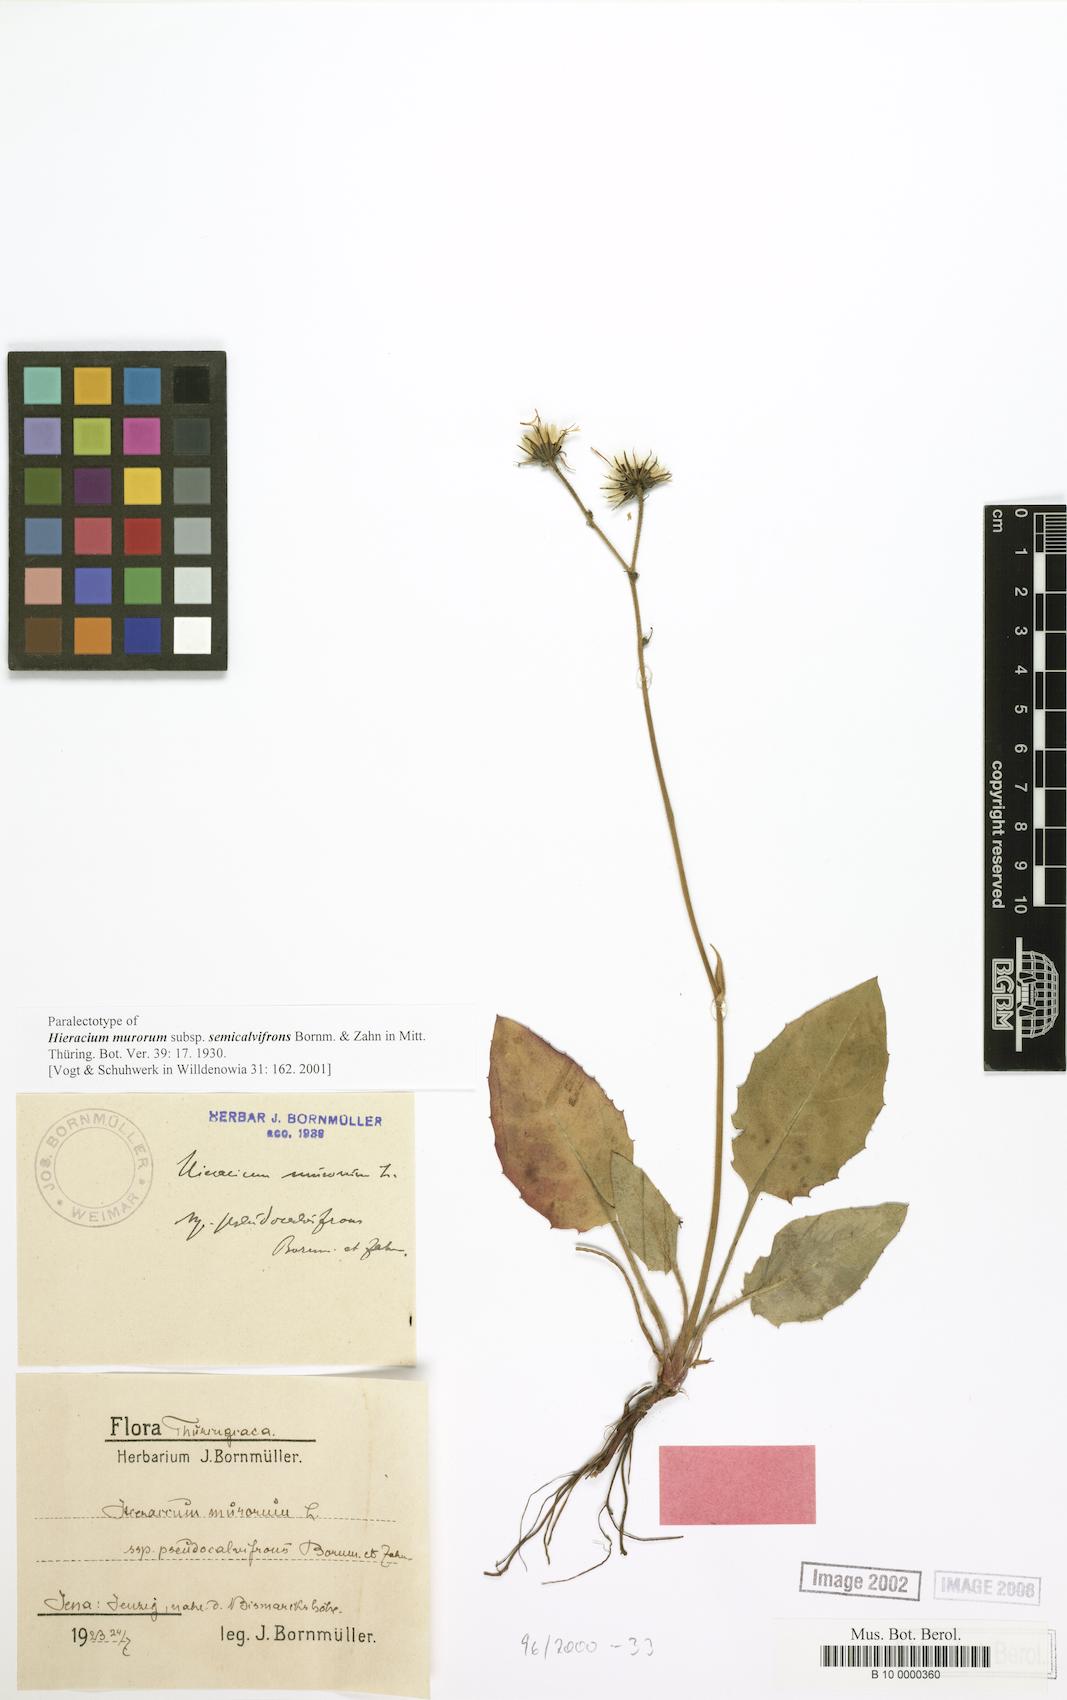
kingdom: Plantae
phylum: Tracheophyta
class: Magnoliopsida
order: Asterales
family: Asteraceae
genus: Hieracium
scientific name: Hieracium murorum
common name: Wall hawkweed
